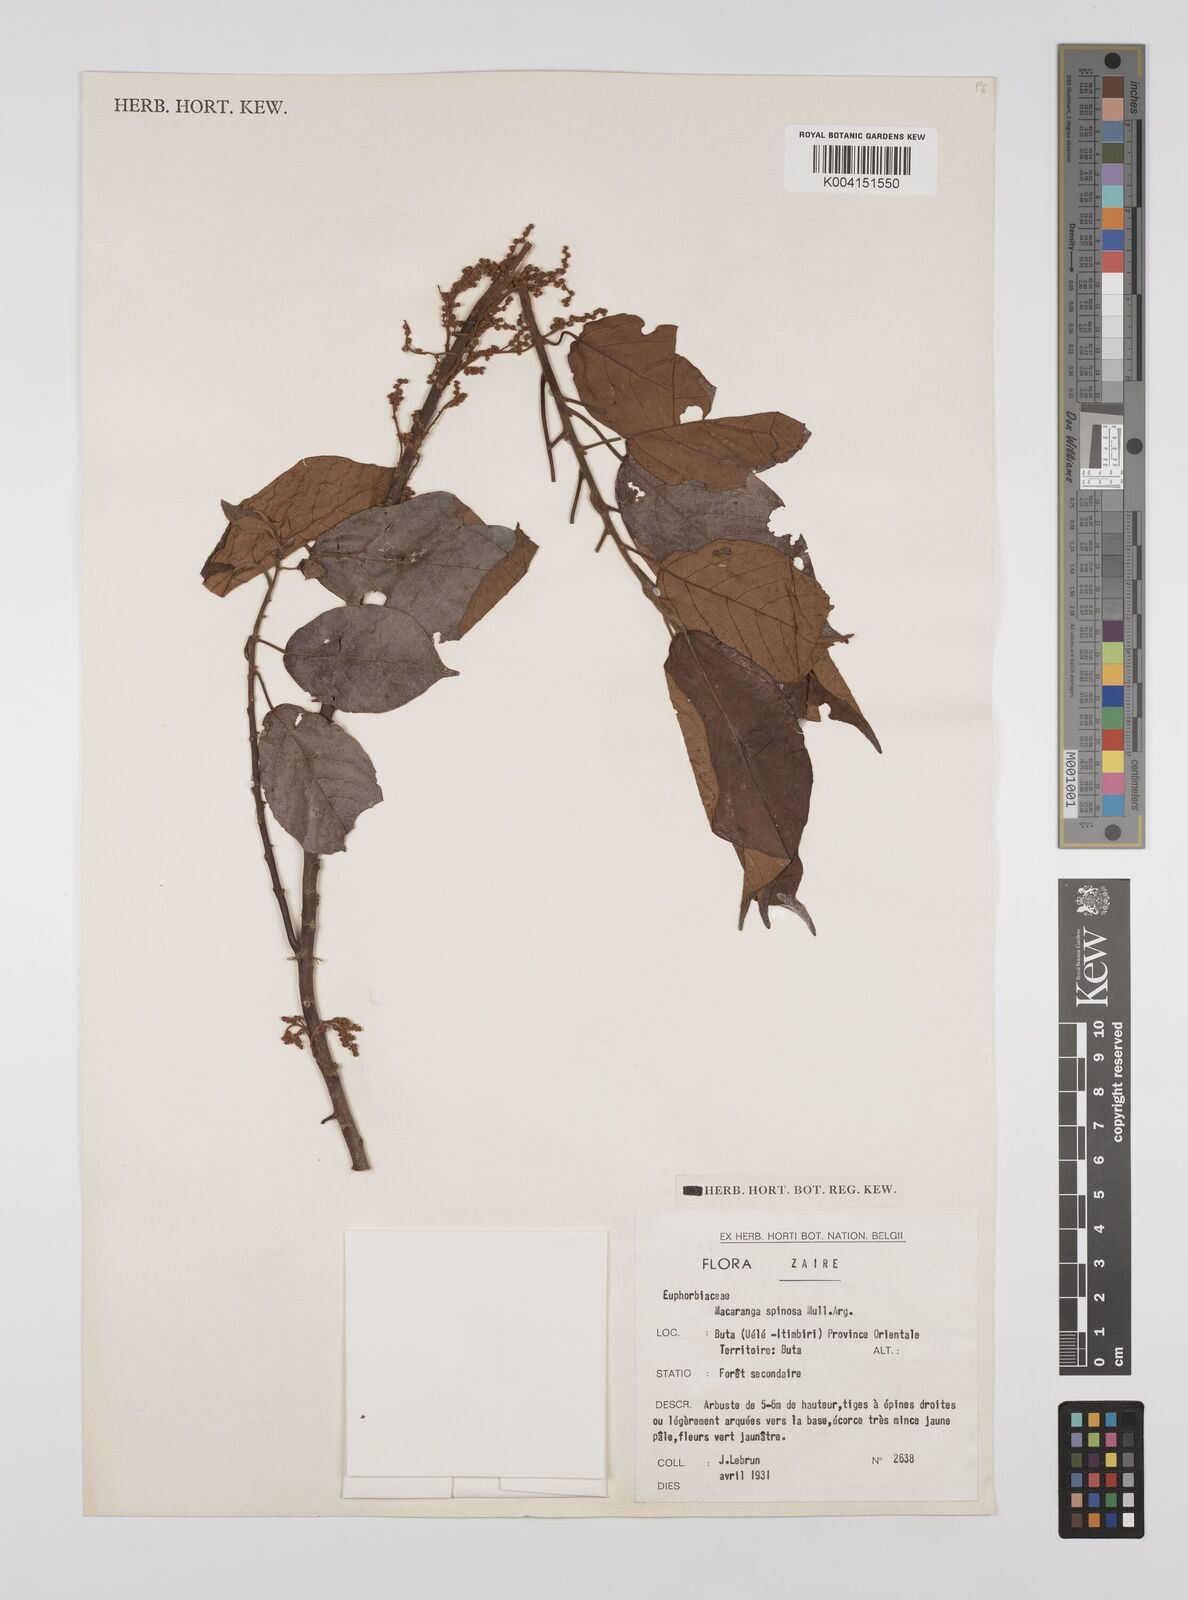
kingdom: Plantae
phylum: Tracheophyta
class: Magnoliopsida
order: Malpighiales
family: Euphorbiaceae
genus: Macaranga
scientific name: Macaranga spinosa
